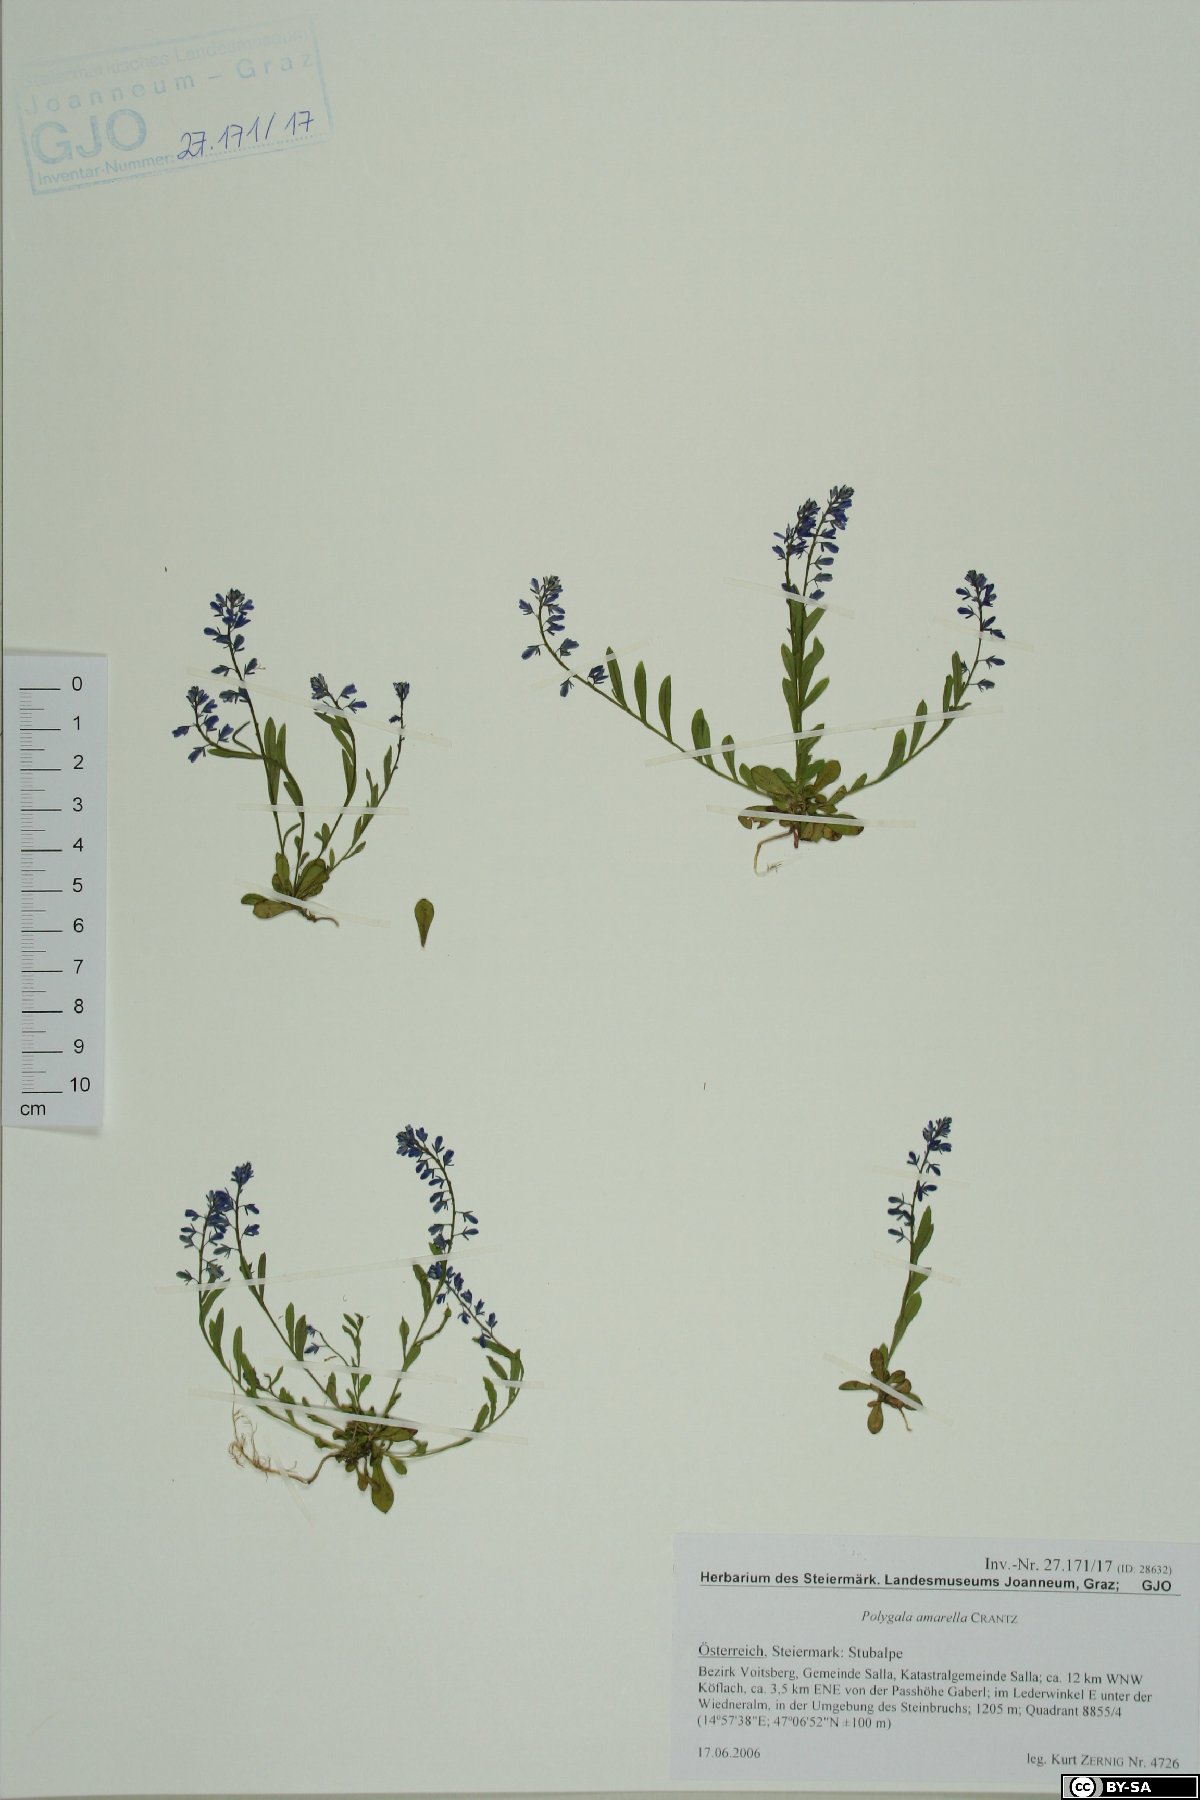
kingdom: Plantae
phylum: Tracheophyta
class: Magnoliopsida
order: Fabales
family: Polygalaceae
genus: Polygala
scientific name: Polygala amarella
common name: Dwarf milkwort
